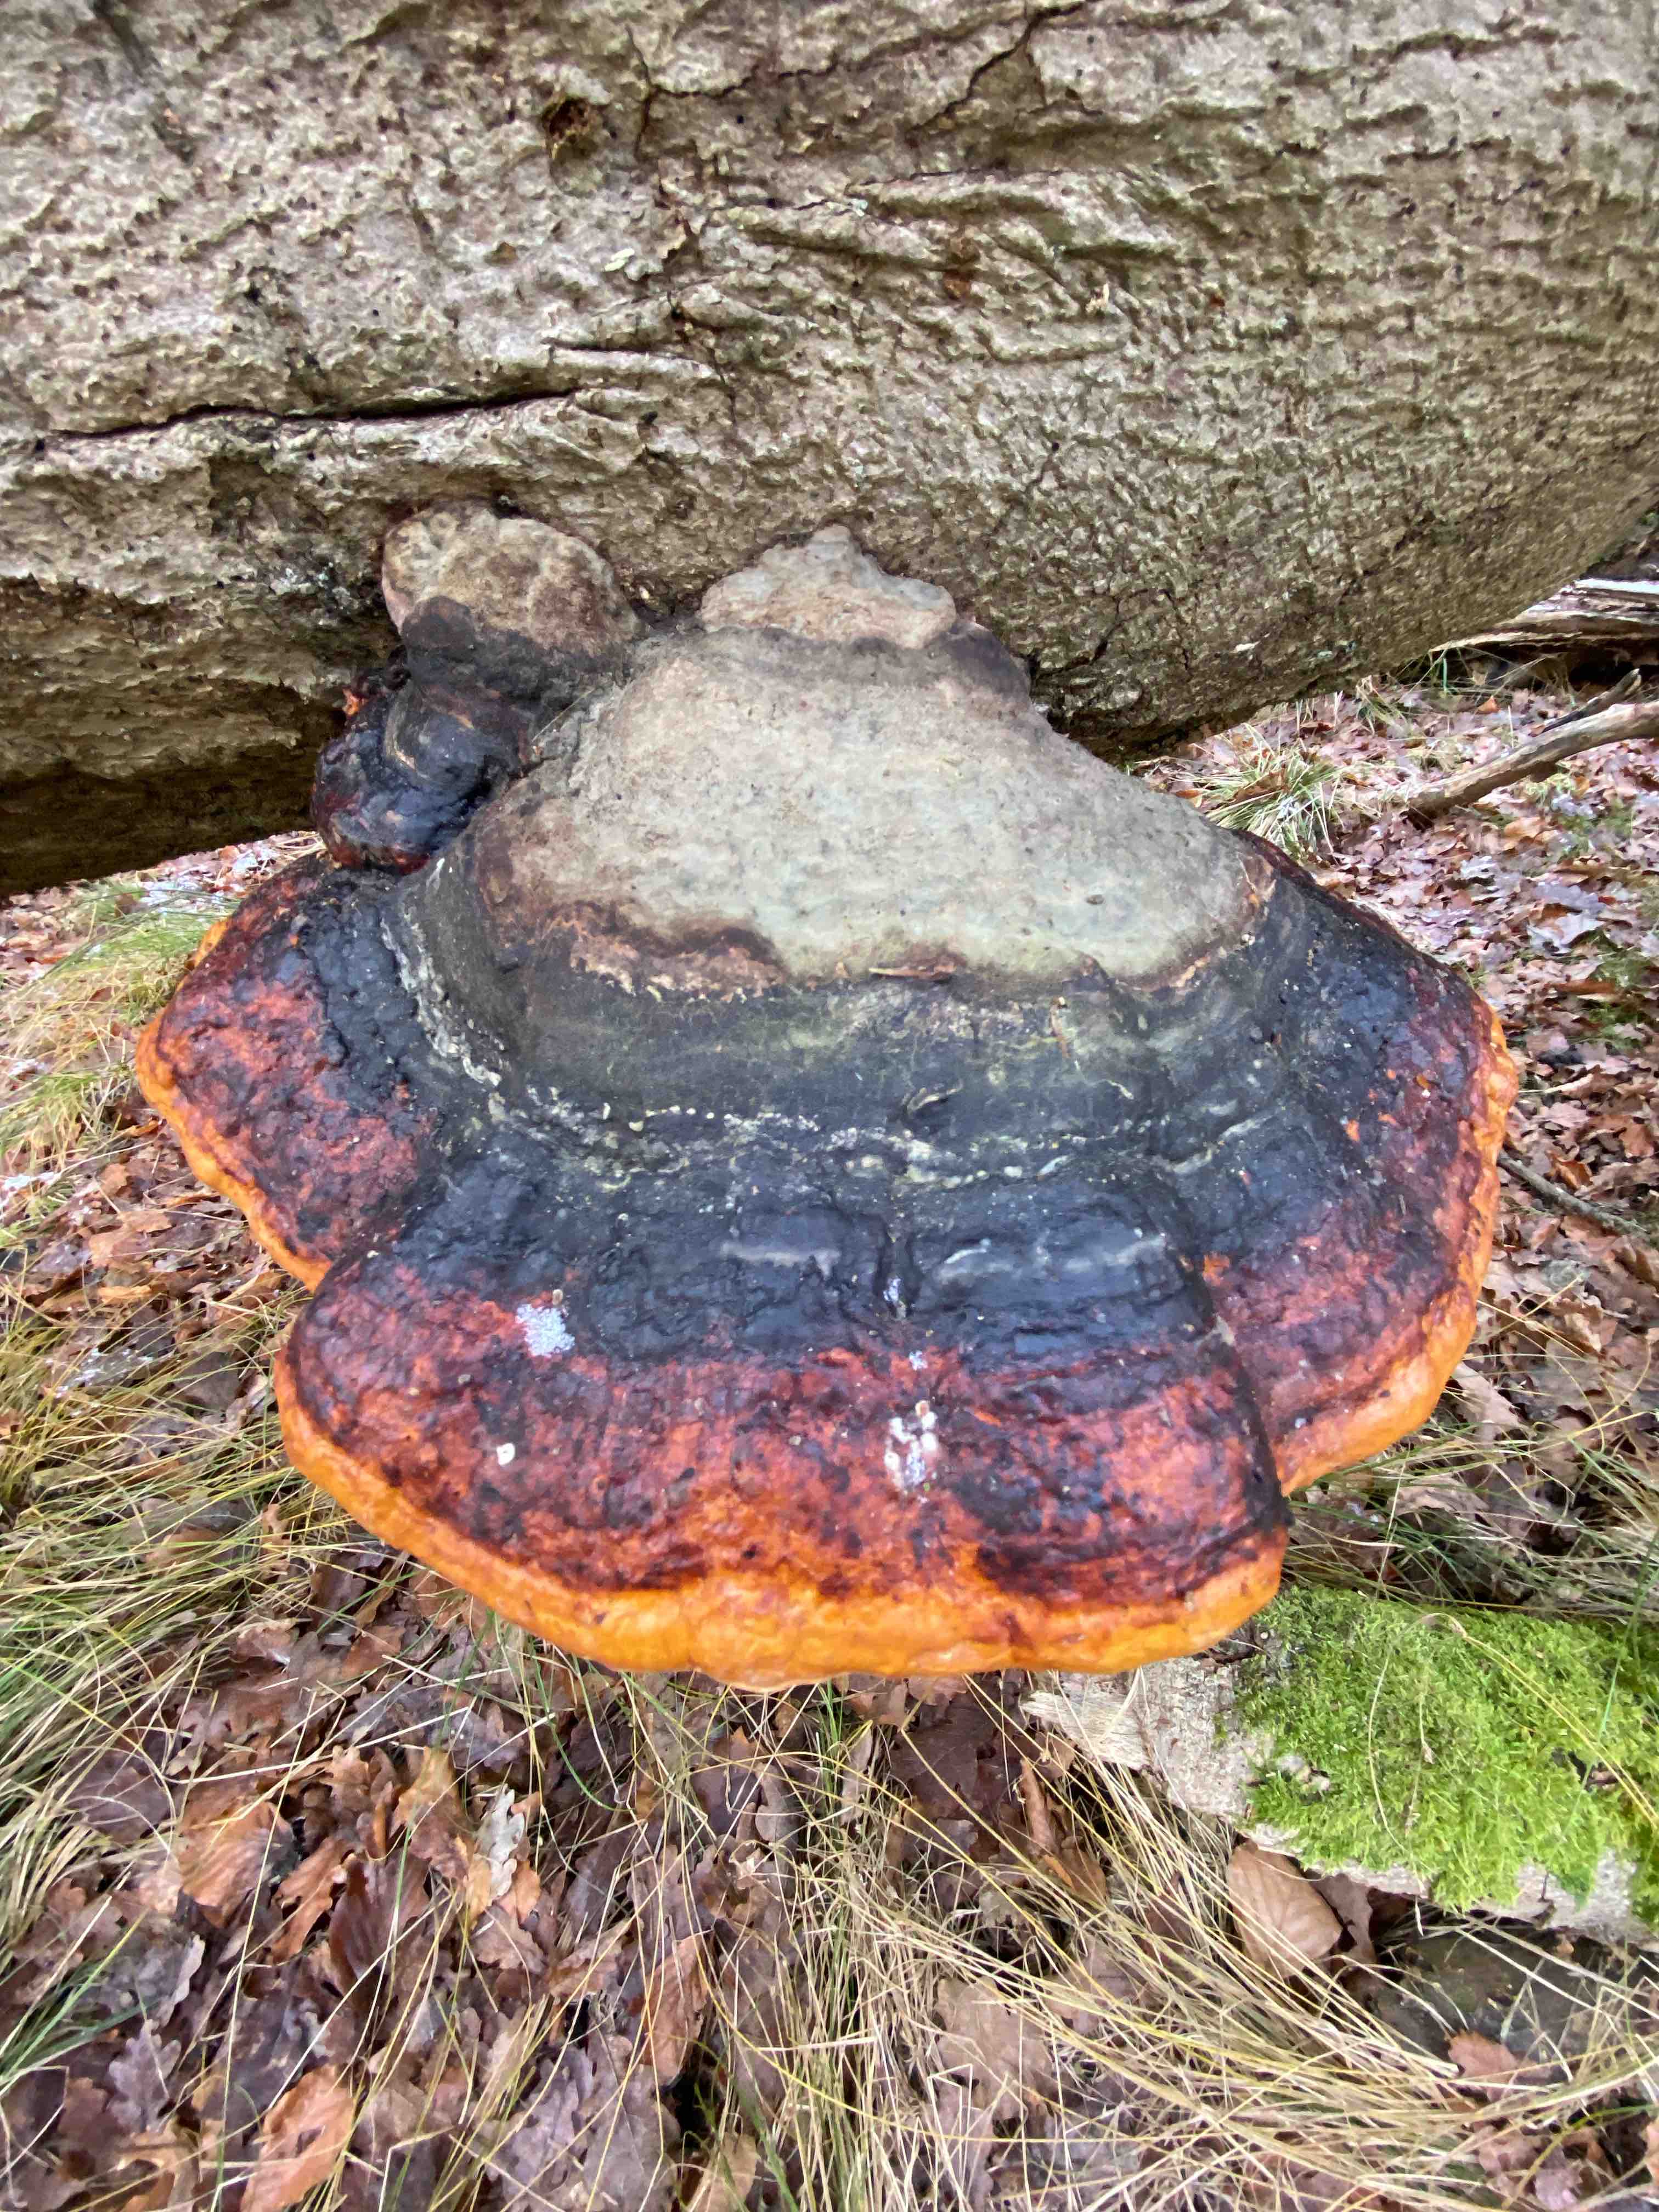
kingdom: Fungi
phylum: Basidiomycota
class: Agaricomycetes
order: Polyporales
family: Fomitopsidaceae
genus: Fomitopsis
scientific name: Fomitopsis pinicola
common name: randbæltet hovporesvamp
